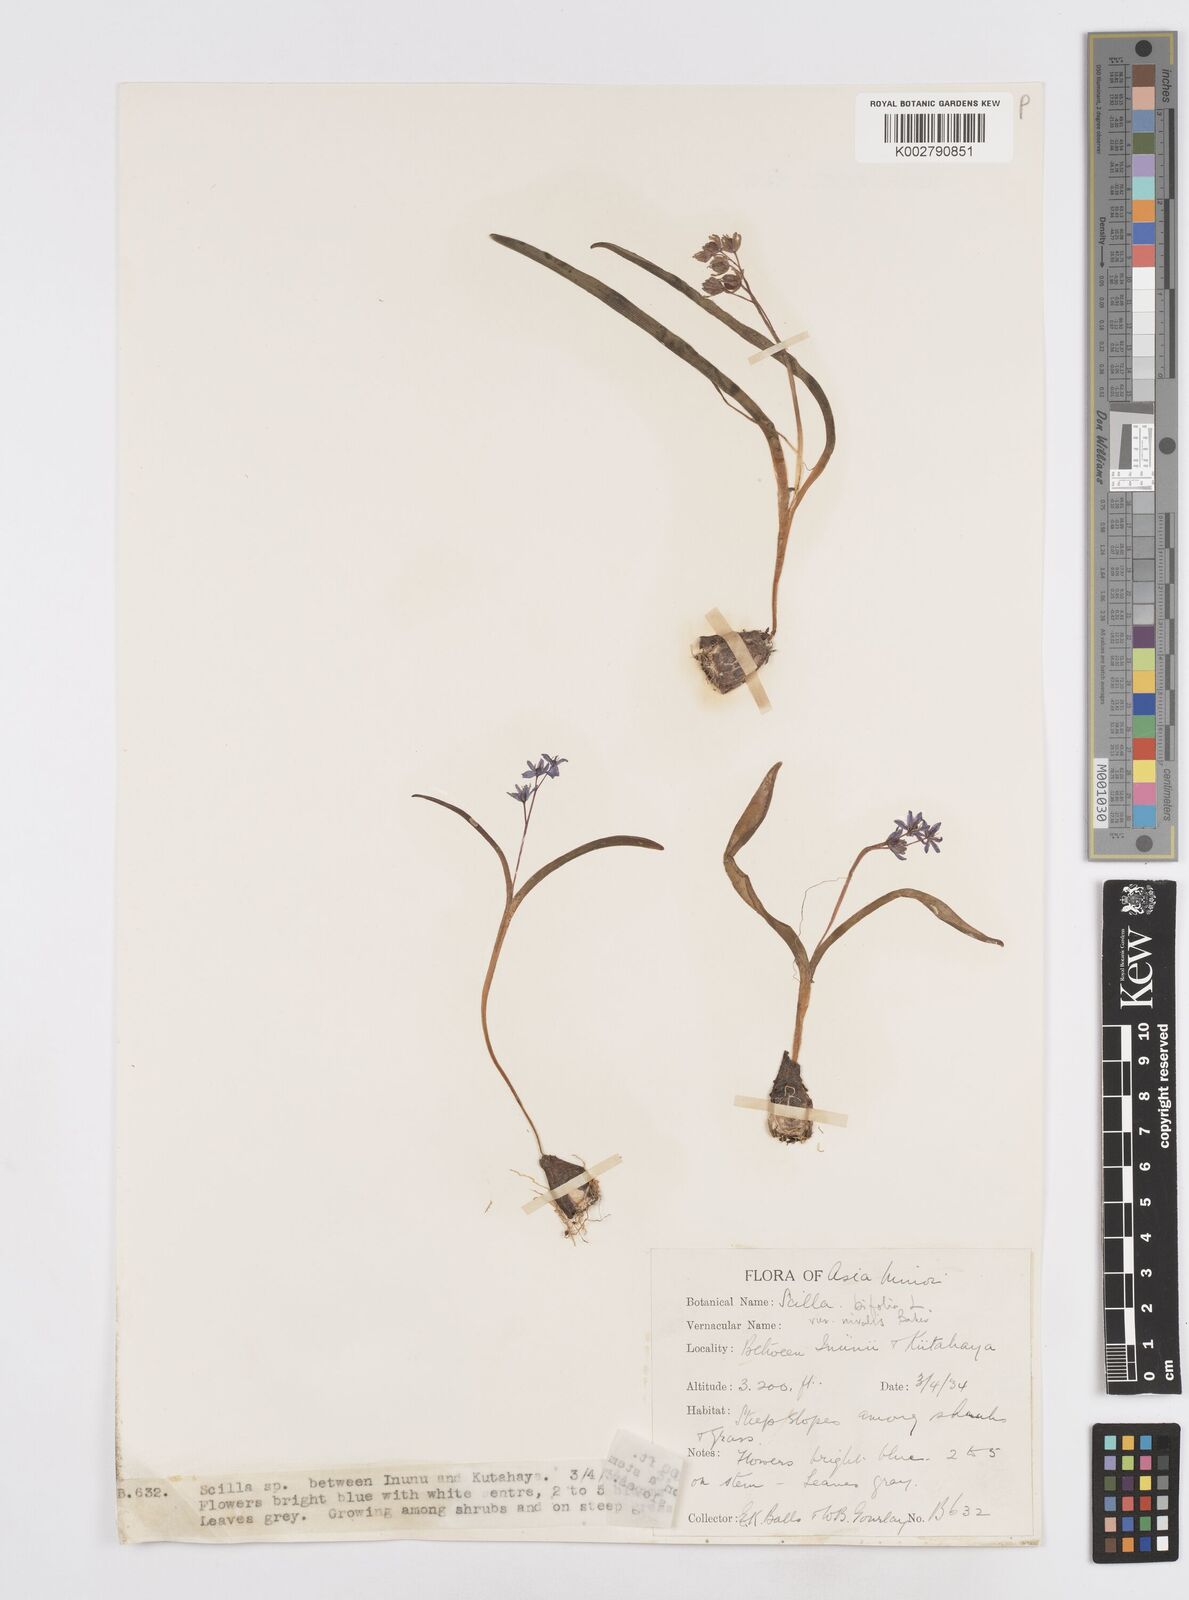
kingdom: Plantae
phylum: Tracheophyta
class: Liliopsida
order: Asparagales
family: Asparagaceae
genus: Scilla
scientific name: Scilla bifolia
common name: Alpine squill
